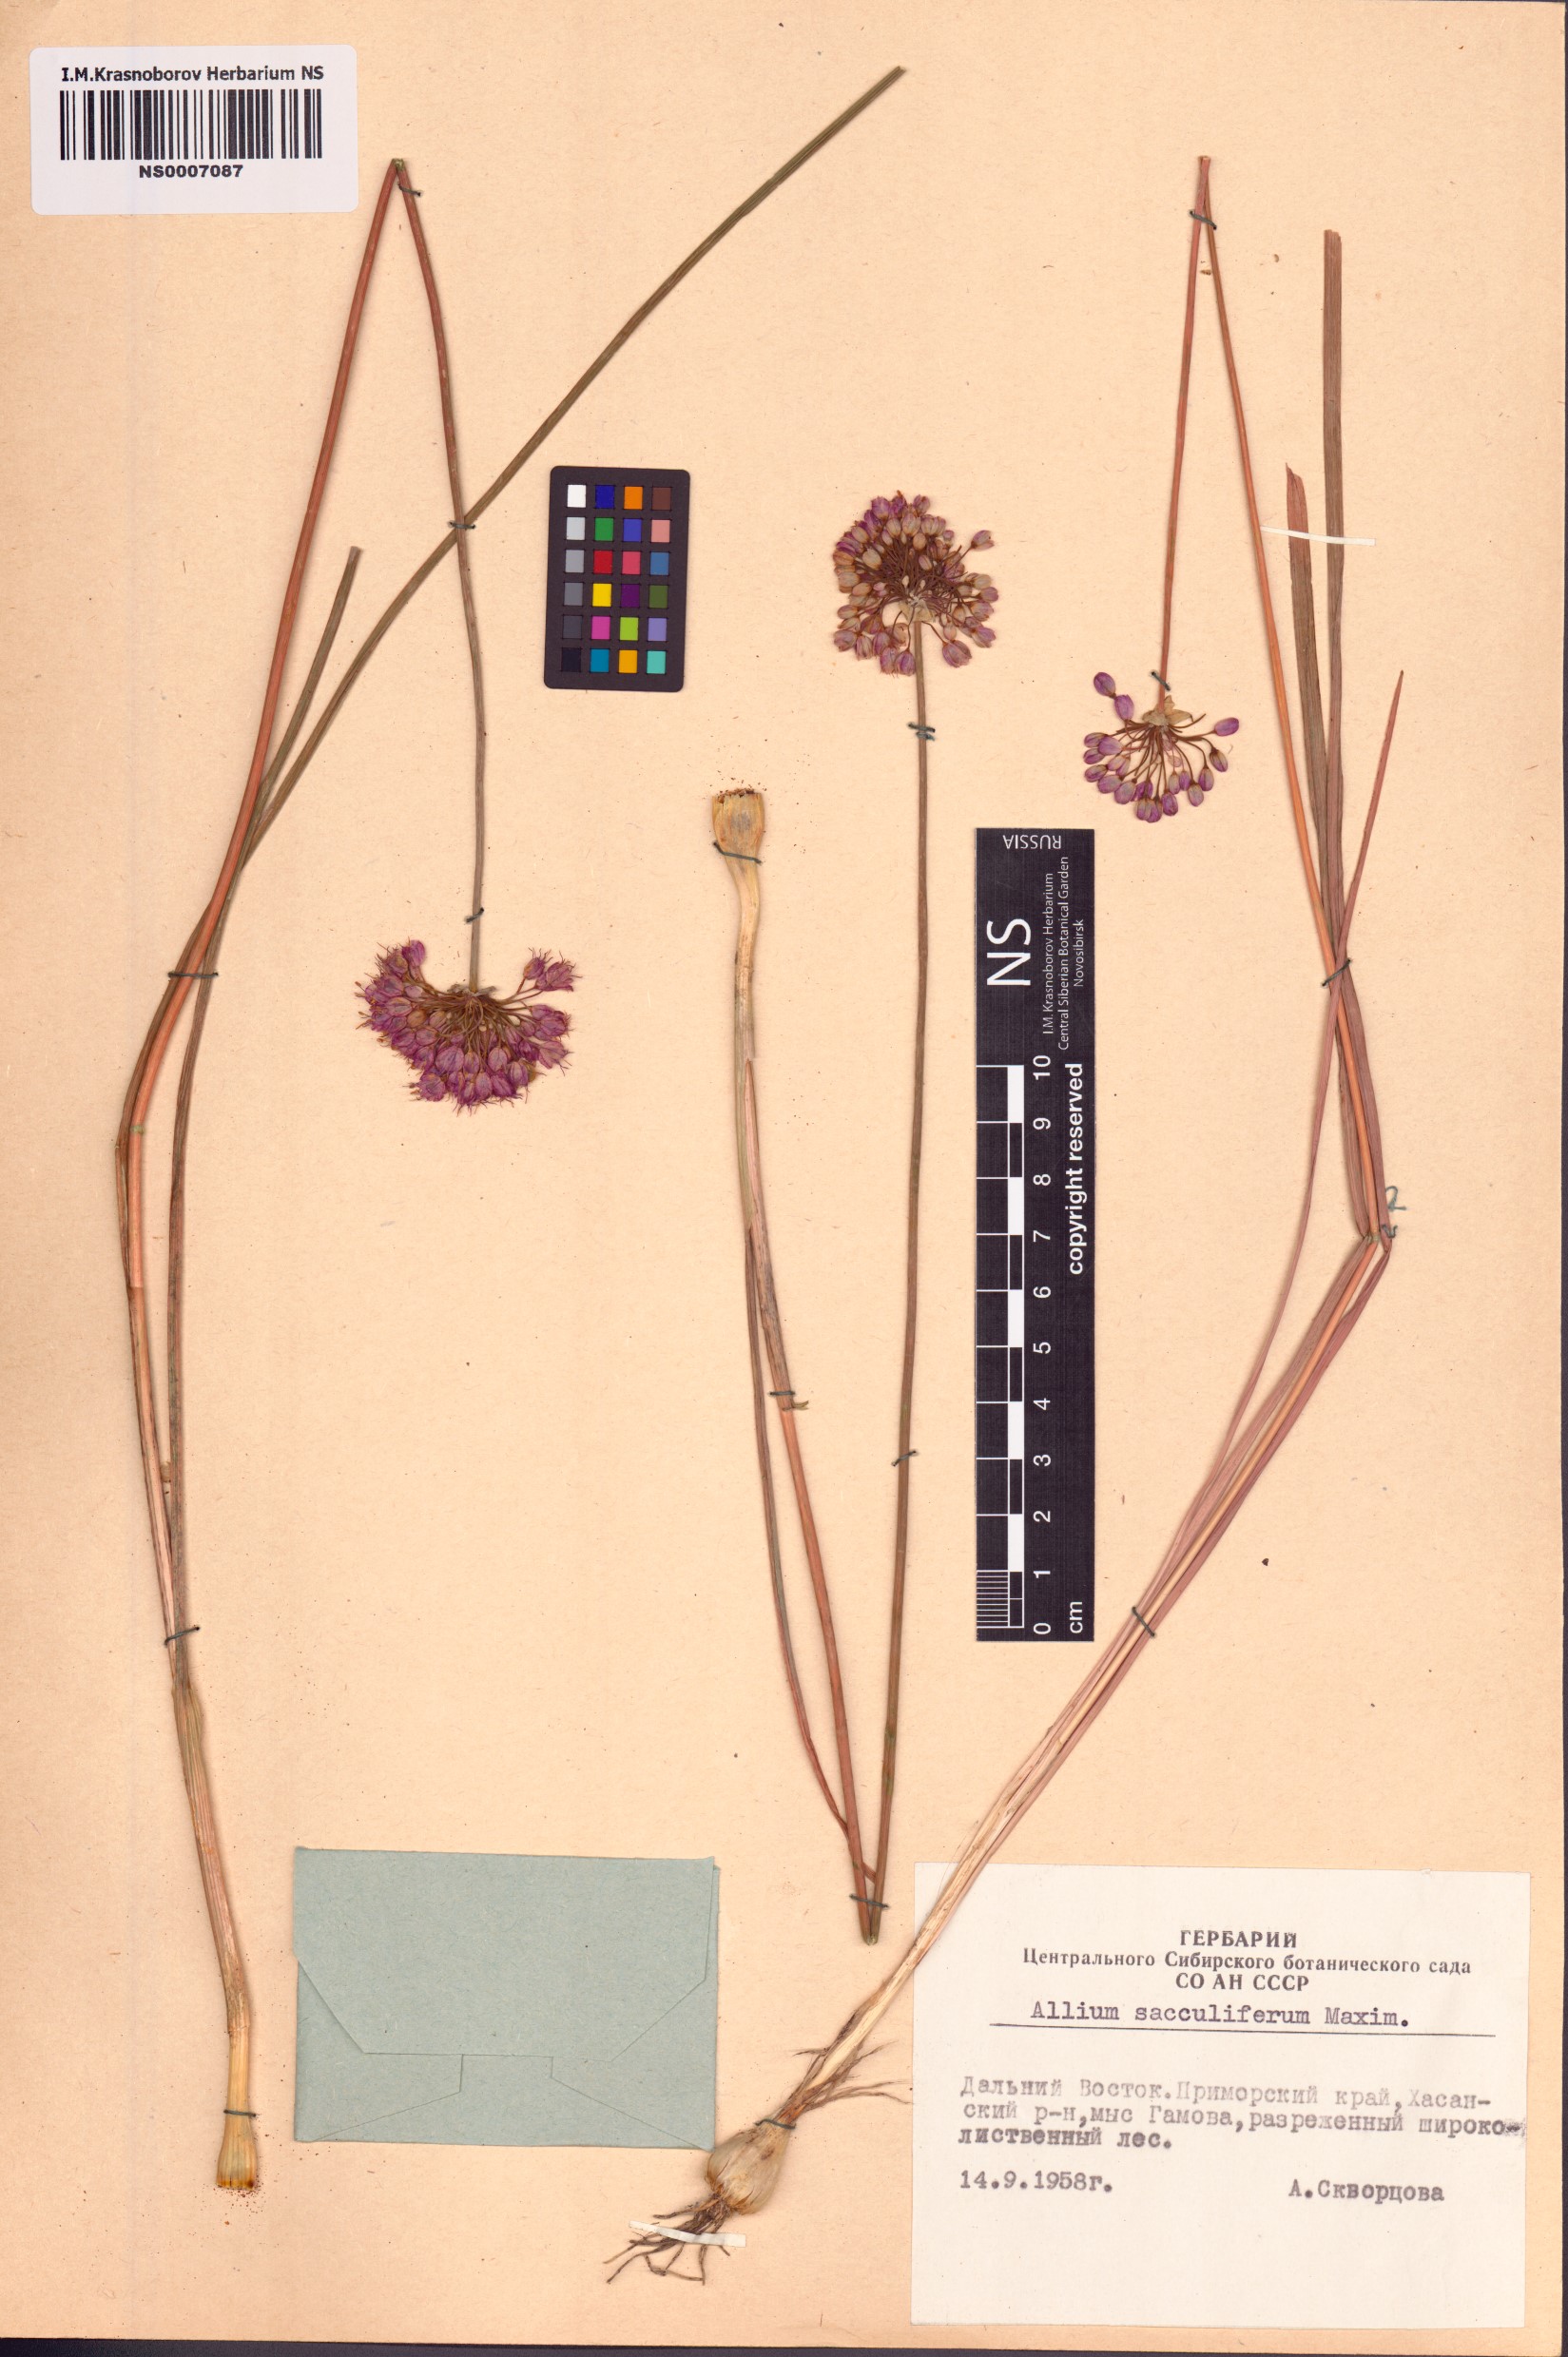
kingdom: Plantae
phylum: Tracheophyta
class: Liliopsida
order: Asparagales
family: Amaryllidaceae
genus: Allium
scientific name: Allium sacculiferum
